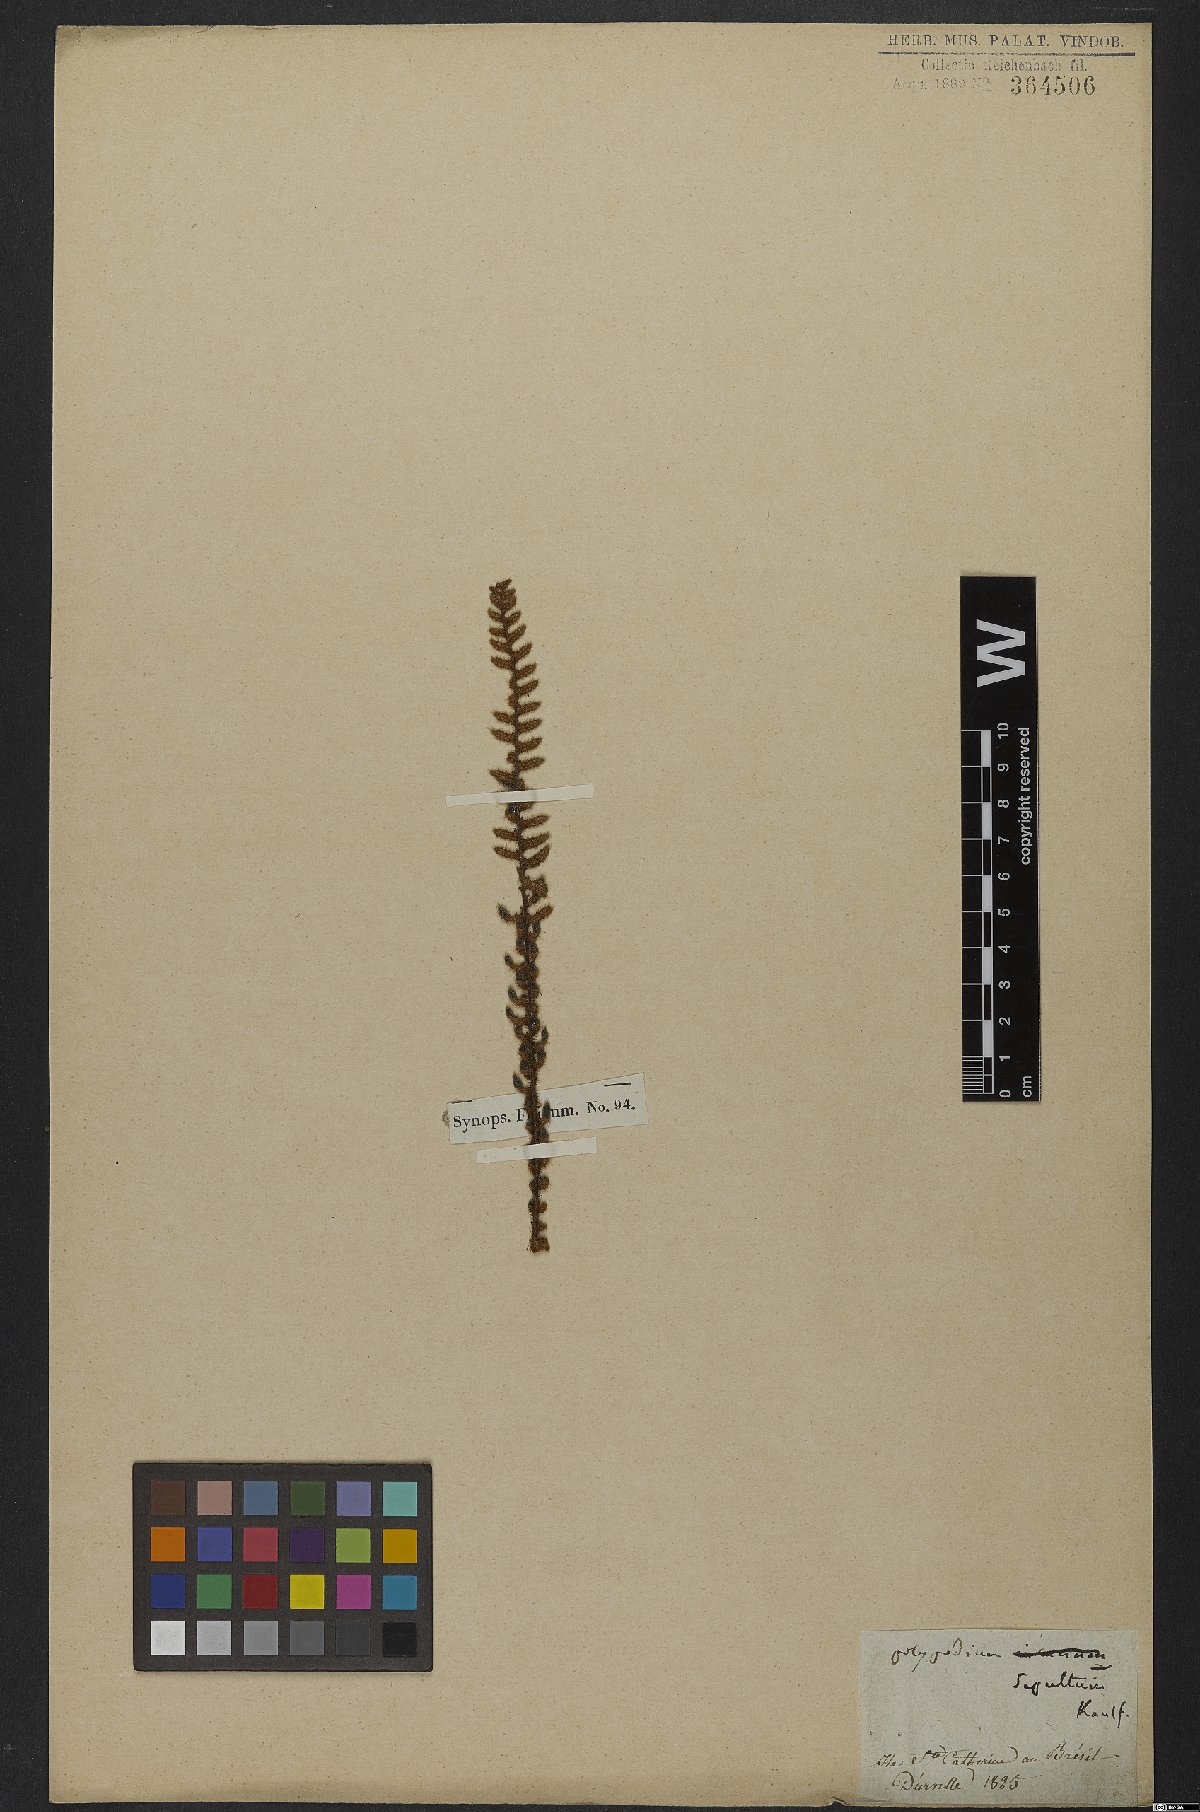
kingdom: Plantae
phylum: Tracheophyta
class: Polypodiopsida
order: Polypodiales
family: Polypodiaceae
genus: Pleopeltis
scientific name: Pleopeltis lepidopteris
